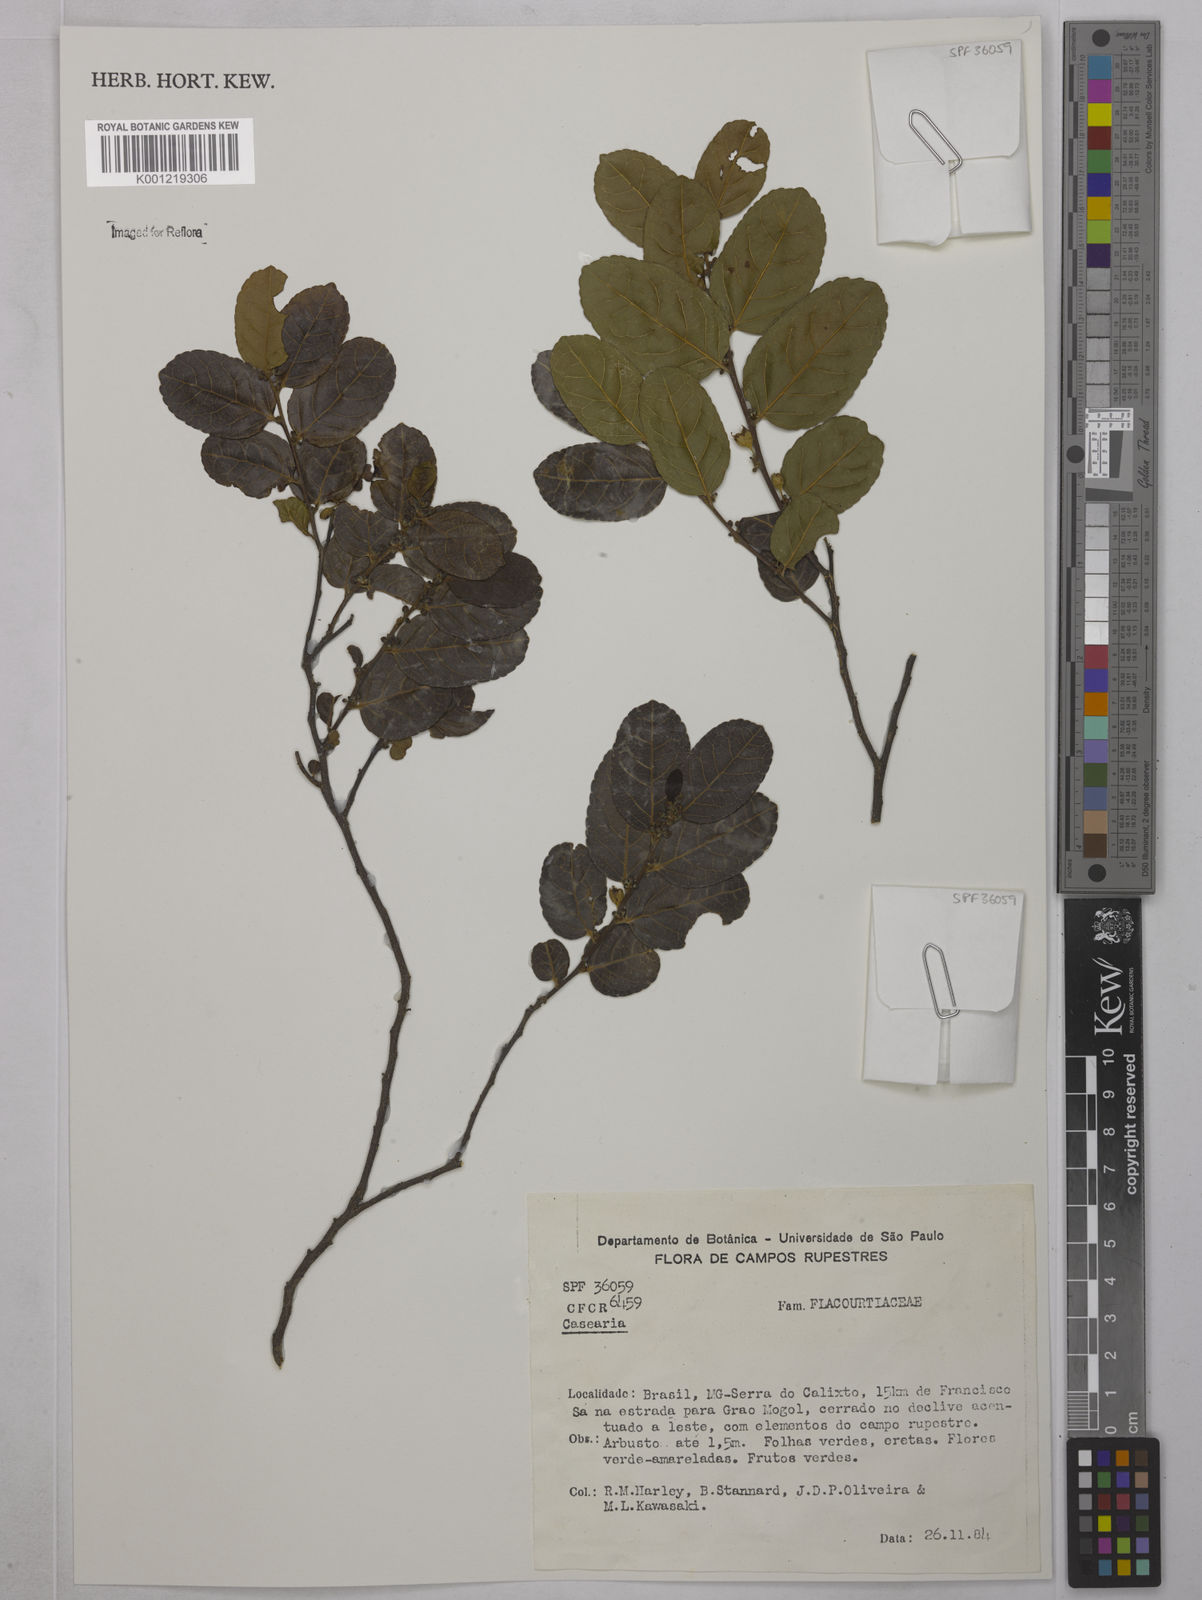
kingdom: Plantae
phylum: Tracheophyta
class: Magnoliopsida
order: Malpighiales
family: Salicaceae
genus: Casearia
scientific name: Casearia
